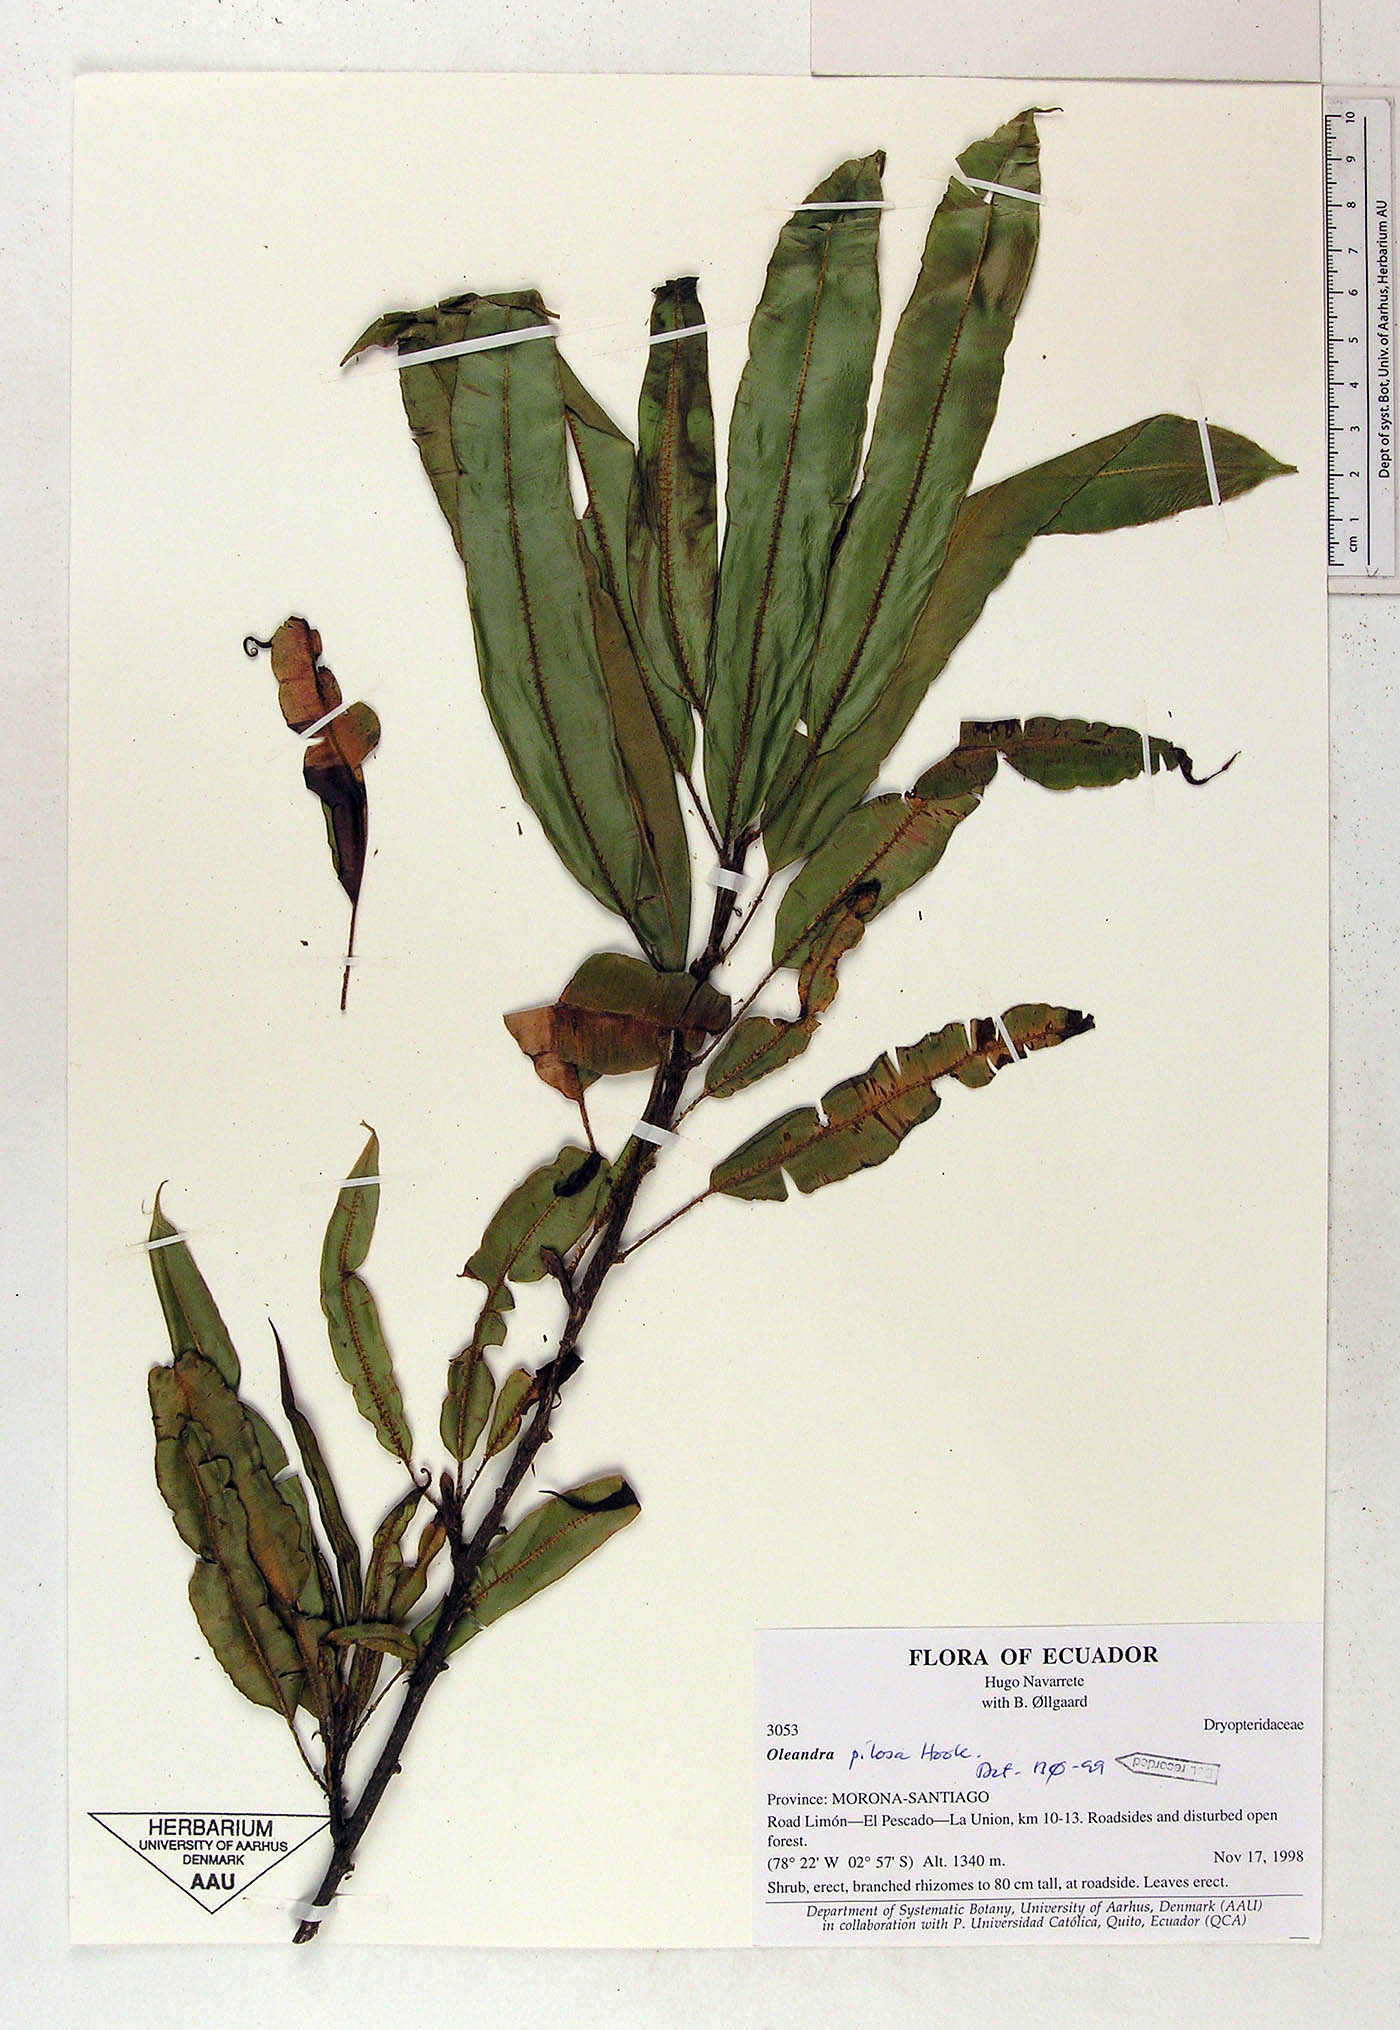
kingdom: Plantae
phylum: Tracheophyta
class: Polypodiopsida
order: Polypodiales
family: Oleandraceae
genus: Oleandra
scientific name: Oleandra pilosa
